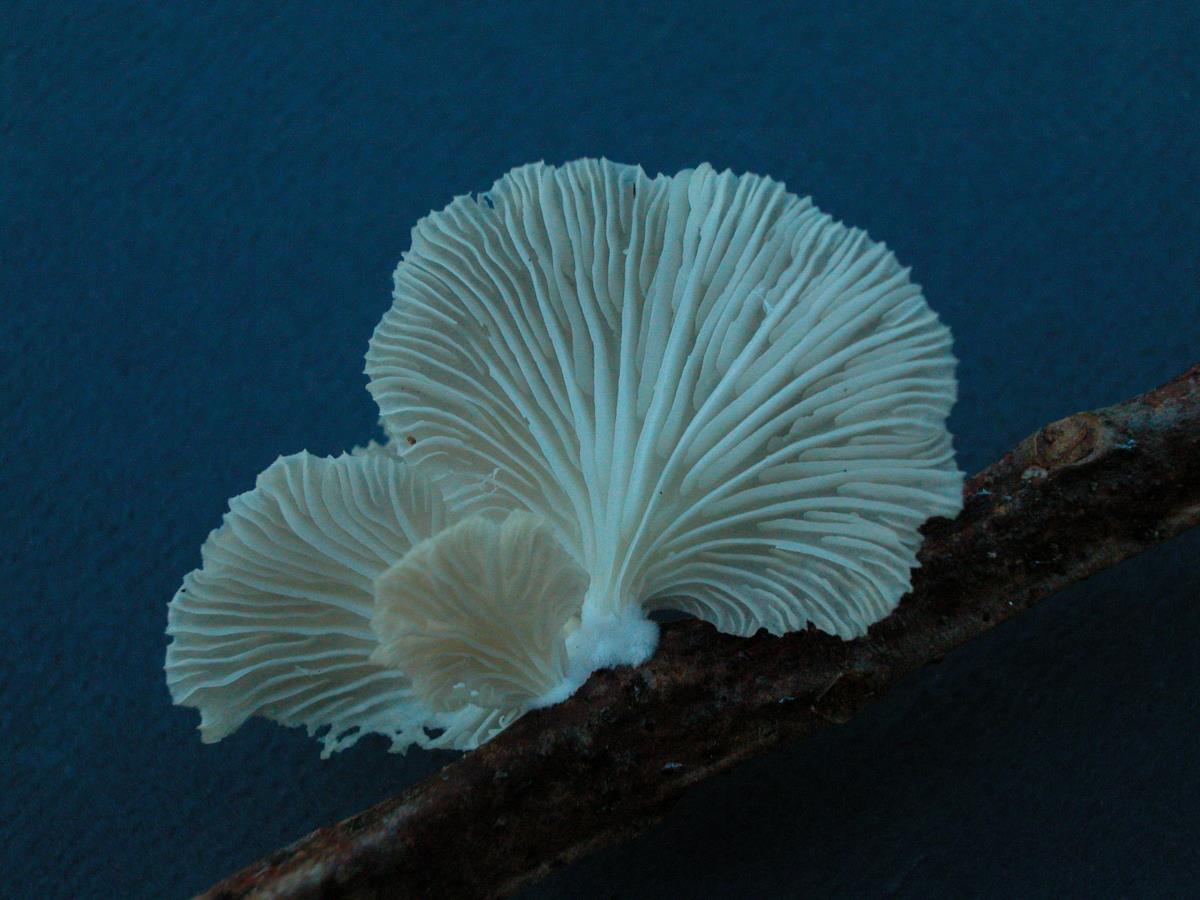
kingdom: Fungi
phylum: Basidiomycota
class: Agaricomycetes
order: Agaricales
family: Pleurotaceae
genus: Pleurotus
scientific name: Pleurotus djamor
